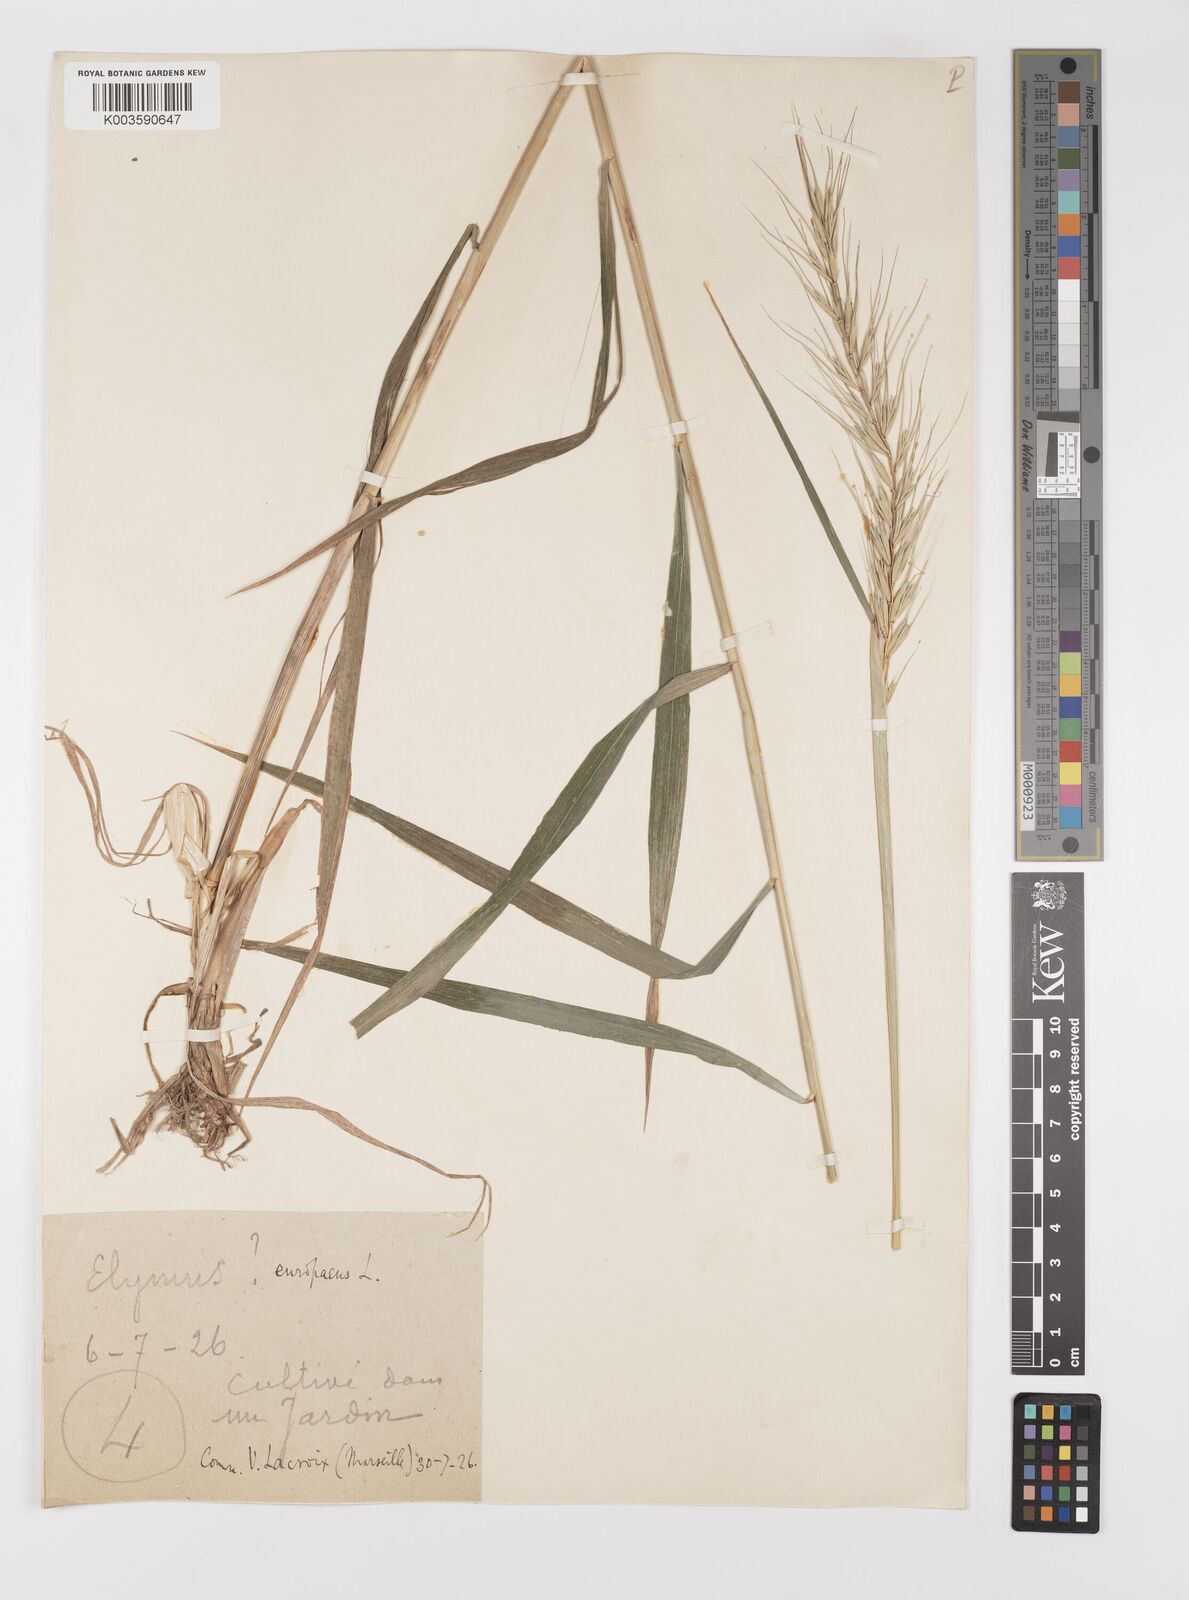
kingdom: Plantae
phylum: Tracheophyta
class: Liliopsida
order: Poales
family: Poaceae
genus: Elymus
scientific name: Elymus hystrix
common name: Bottlebrush grass
